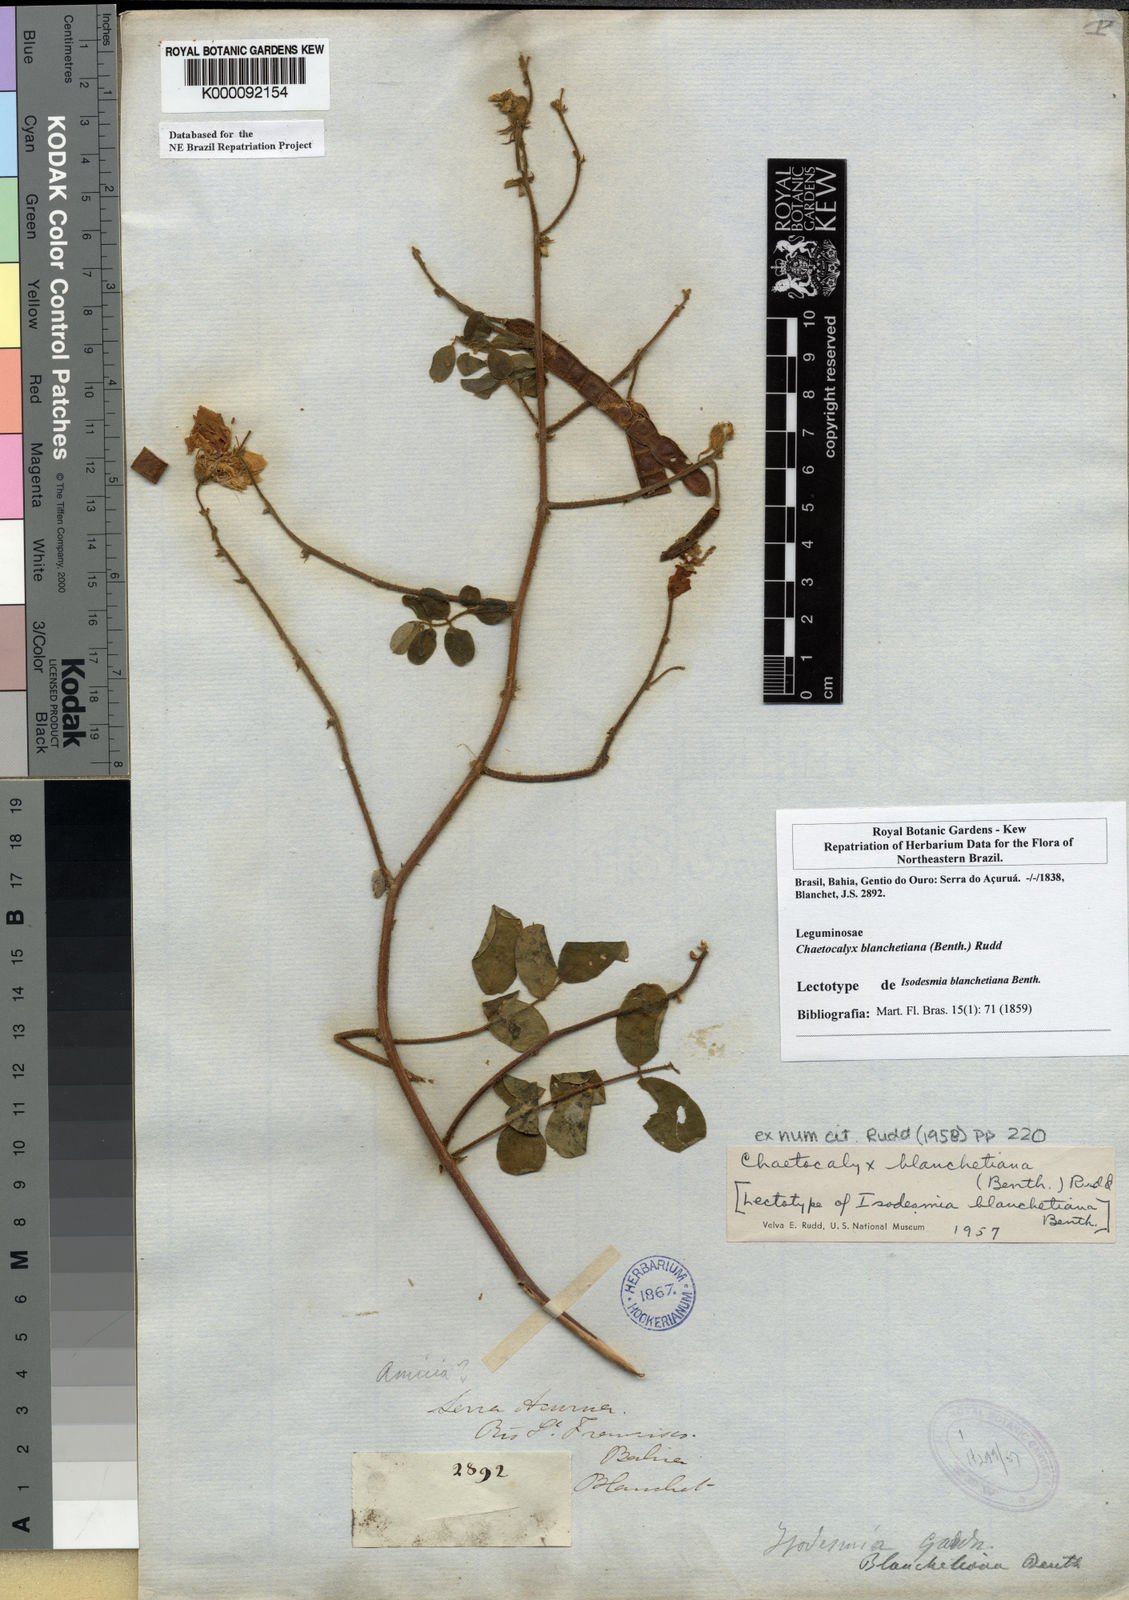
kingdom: Plantae
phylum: Tracheophyta
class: Magnoliopsida
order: Fabales
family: Fabaceae
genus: Nissolia
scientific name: Nissolia blanchetiana
